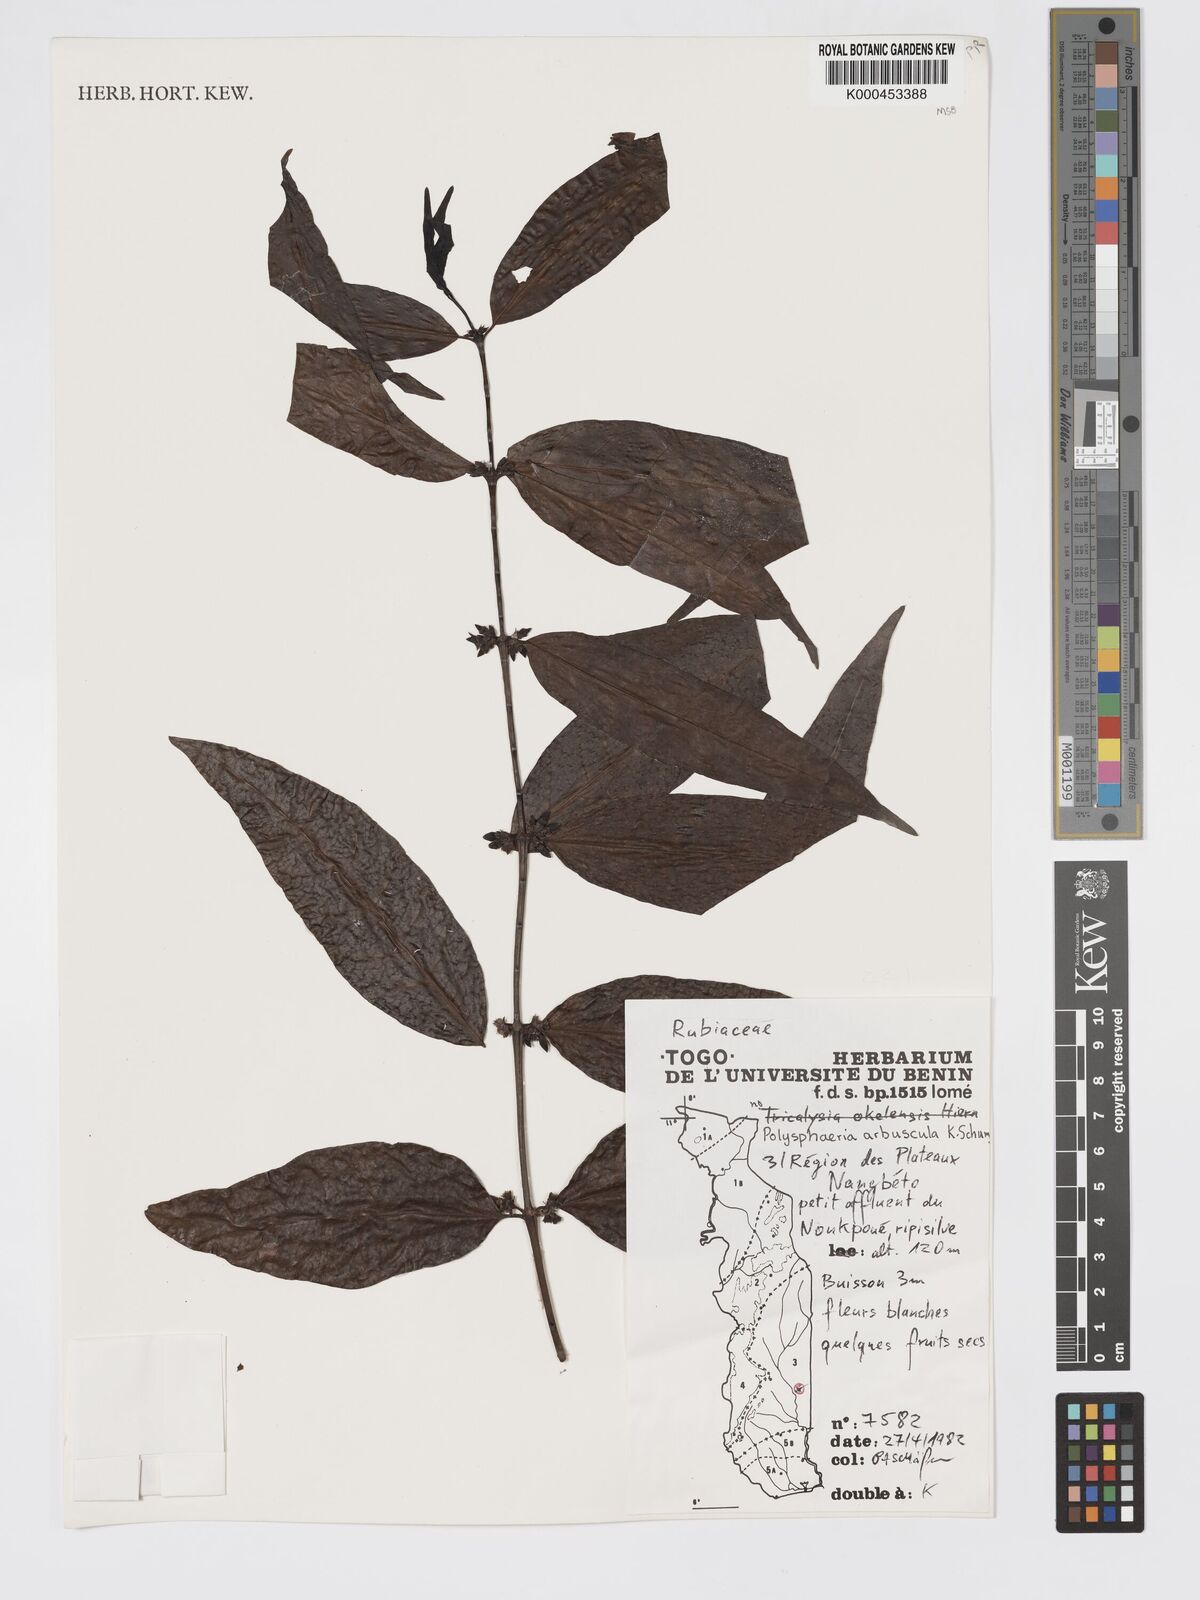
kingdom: Plantae
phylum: Tracheophyta
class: Magnoliopsida
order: Gentianales
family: Rubiaceae
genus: Polysphaeria
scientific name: Polysphaeria arbuscula
